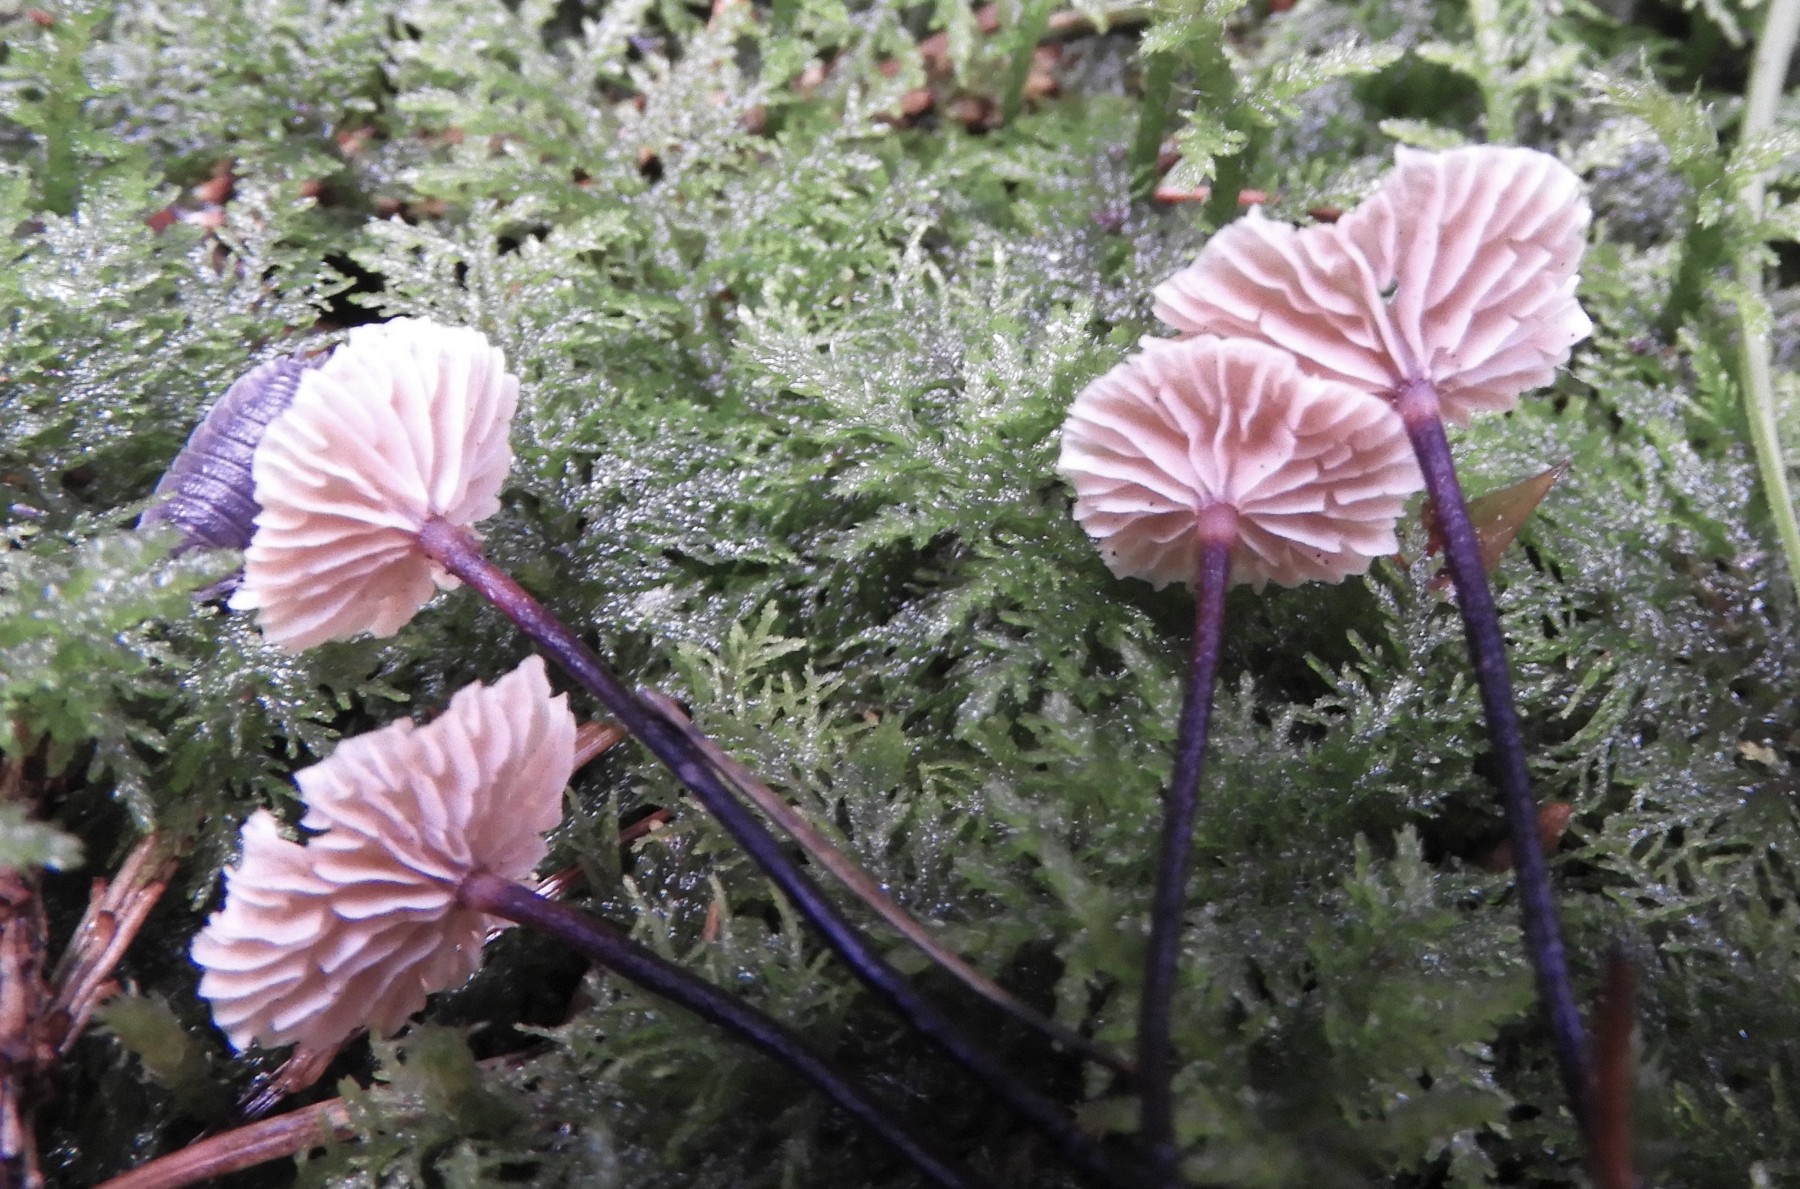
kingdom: Fungi
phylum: Basidiomycota
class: Agaricomycetes
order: Agaricales
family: Omphalotaceae
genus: Paragymnopus
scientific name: Paragymnopus perforans
